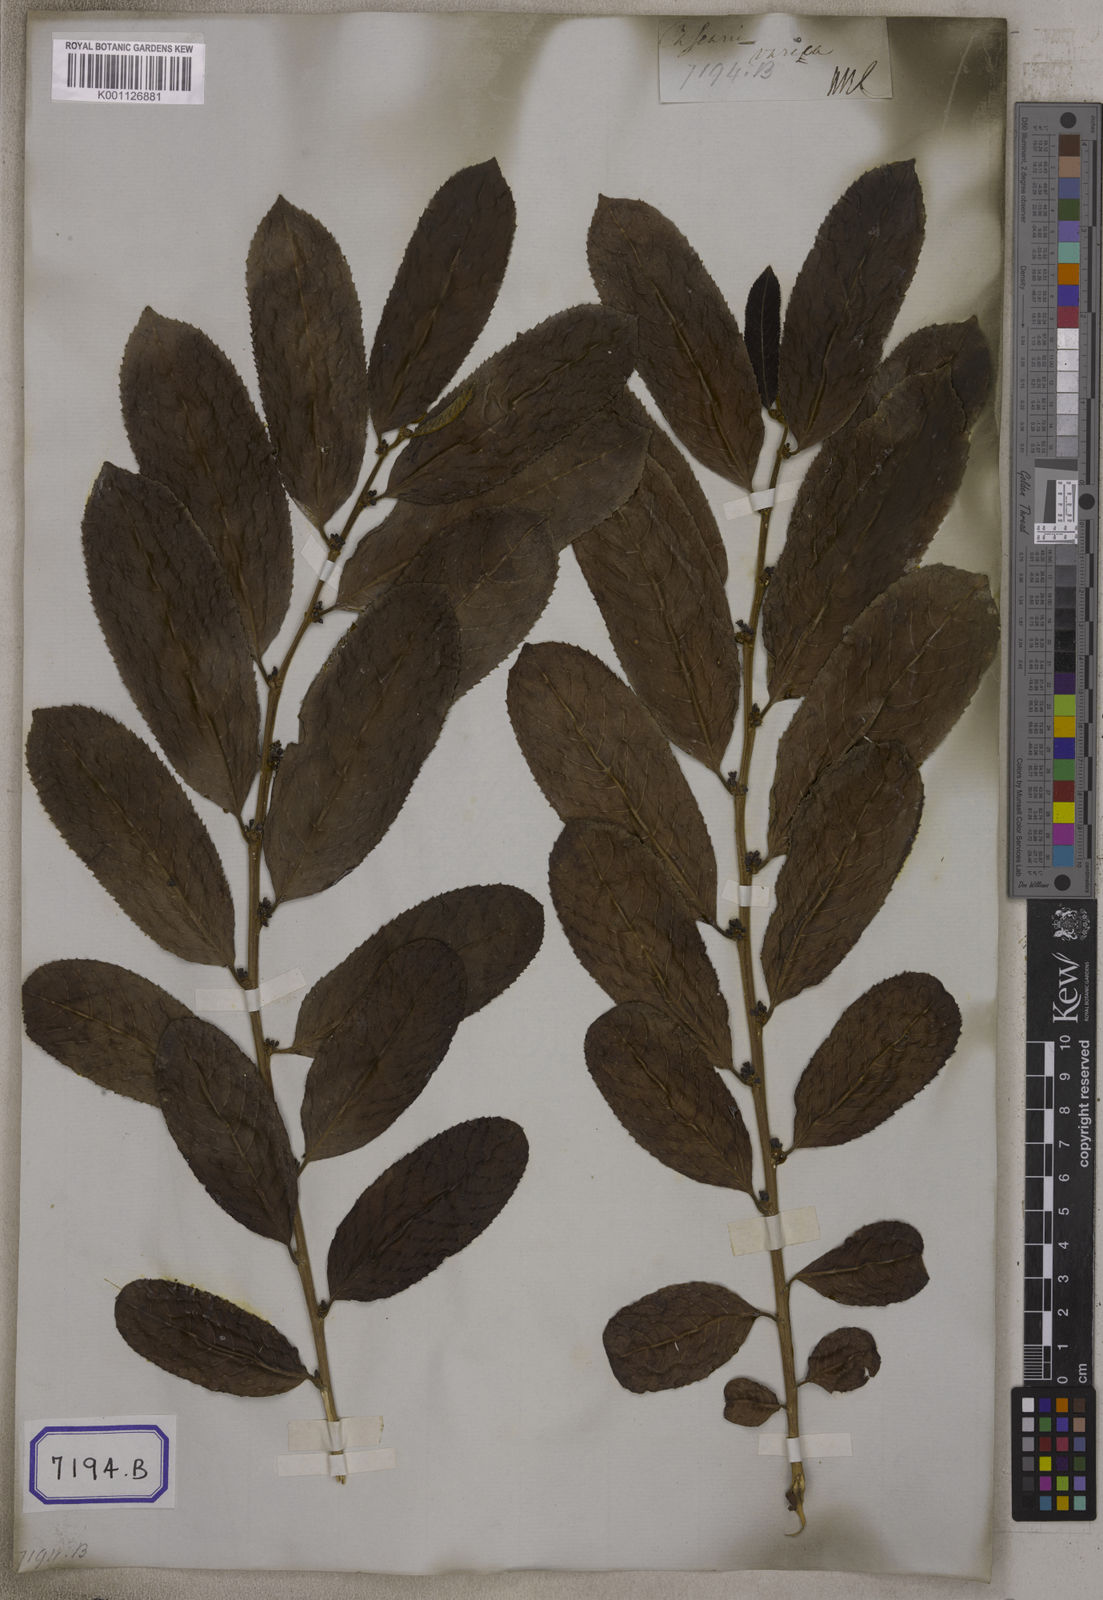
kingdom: Plantae
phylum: Tracheophyta
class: Magnoliopsida
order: Malpighiales
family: Salicaceae
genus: Casearia
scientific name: Casearia vareca
